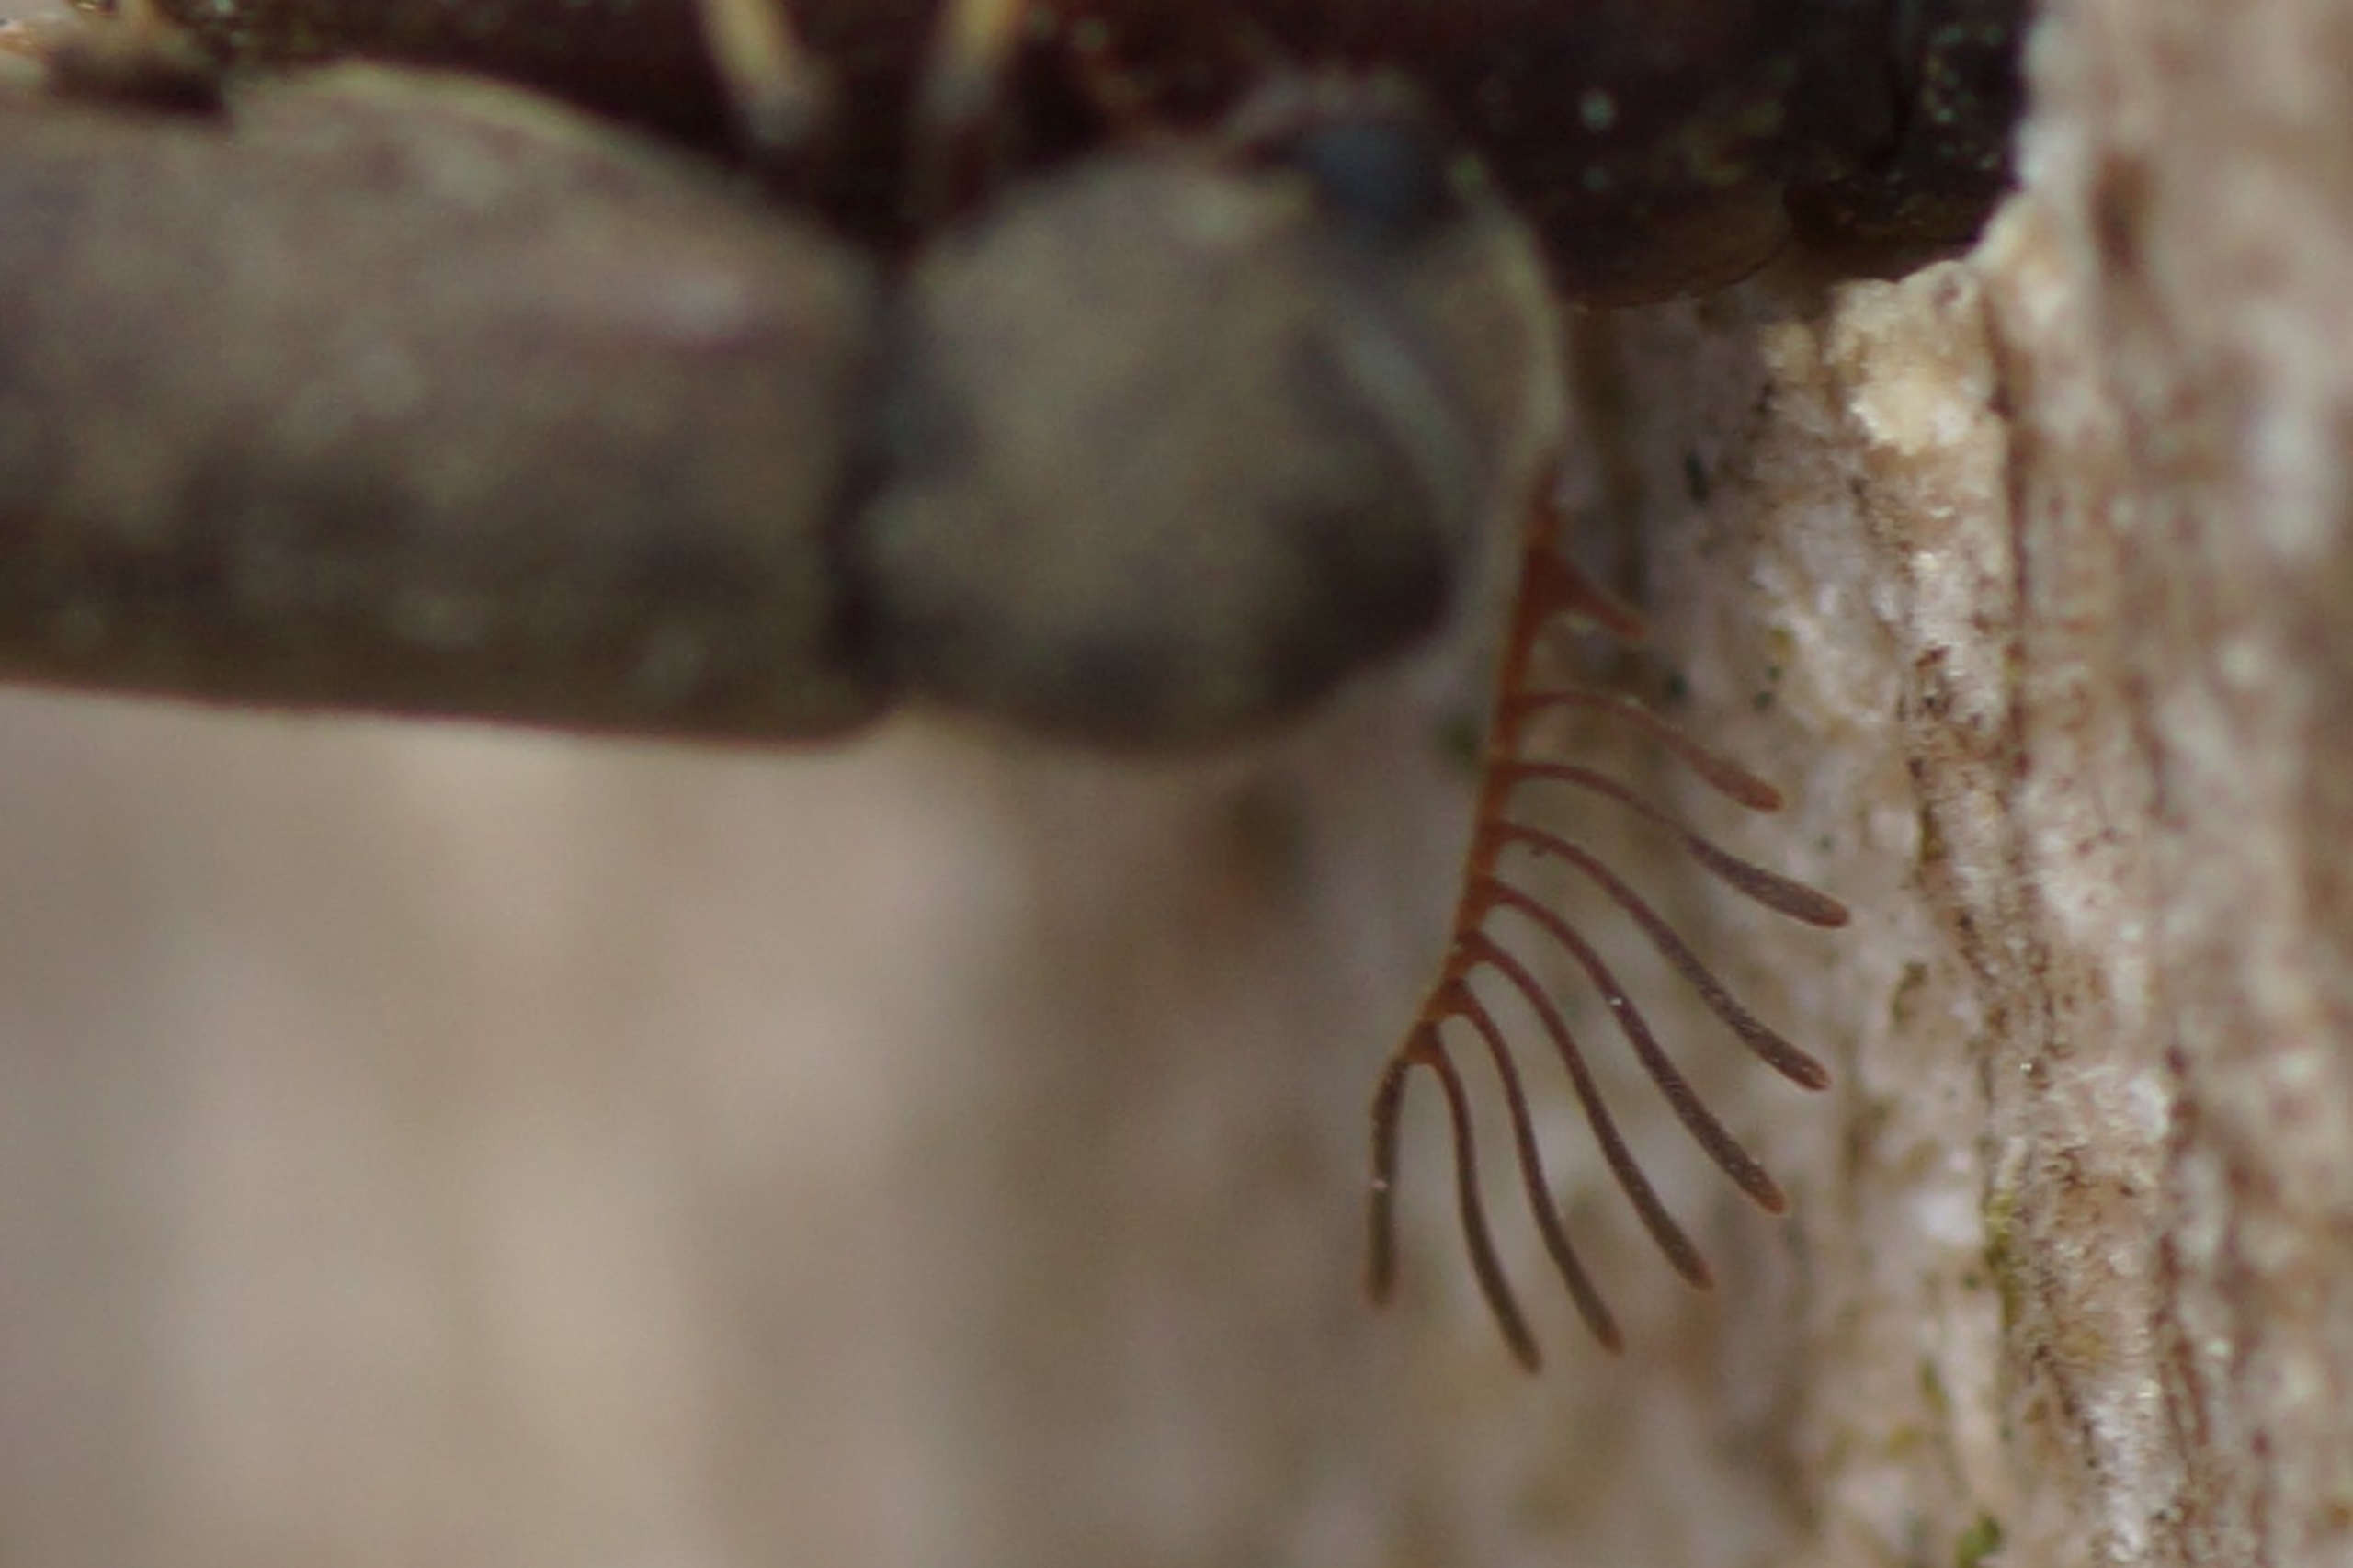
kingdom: Animalia
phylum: Arthropoda
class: Insecta
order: Coleoptera
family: Anobiidae
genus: Ptilinus
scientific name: Ptilinus pectinicornis
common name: Kamhornet borebille
